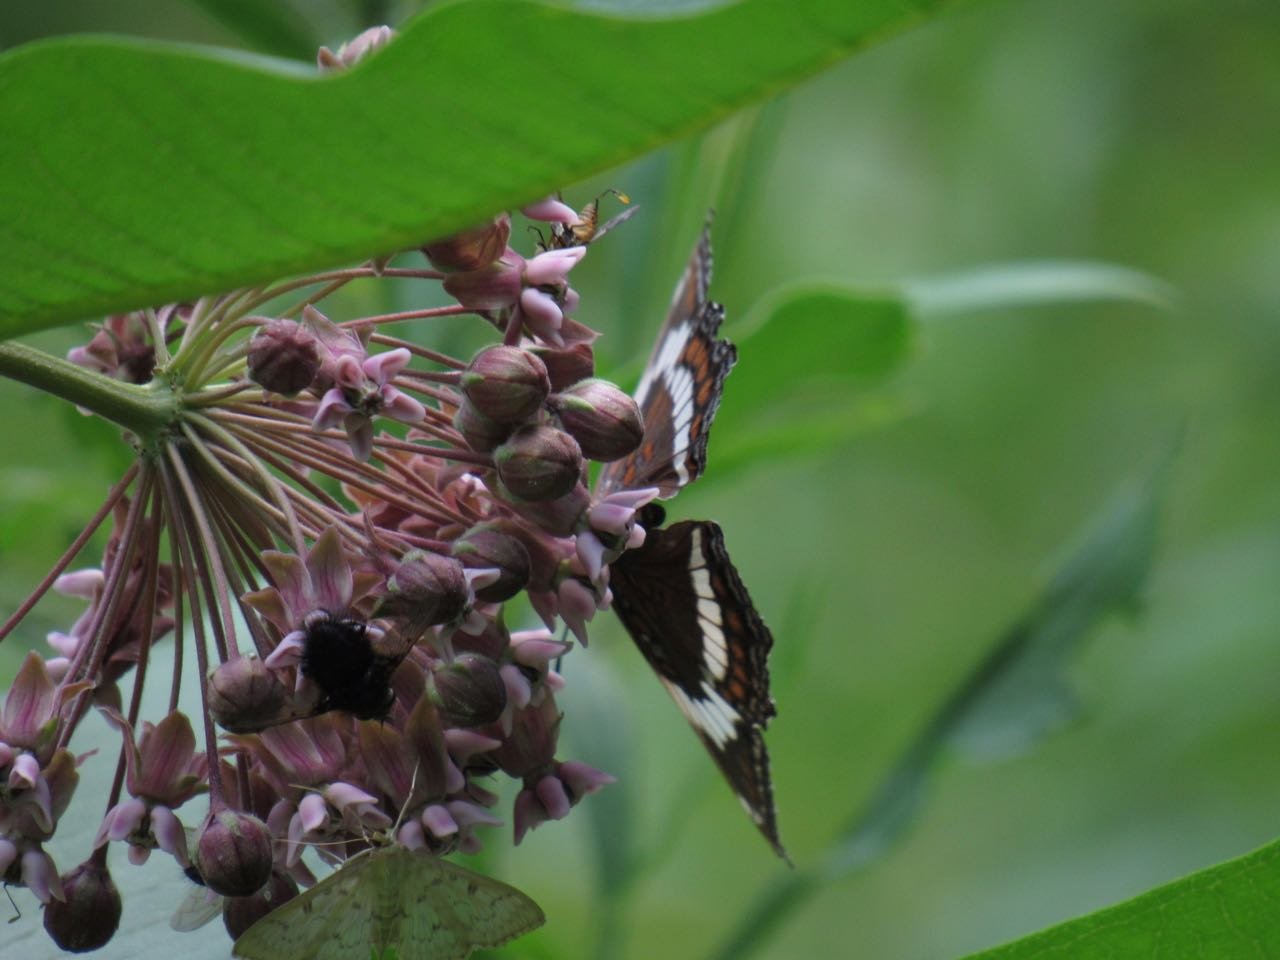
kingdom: Animalia
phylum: Arthropoda
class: Insecta
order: Lepidoptera
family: Nymphalidae
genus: Limenitis
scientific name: Limenitis arthemis
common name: Red-spotted Admiral
